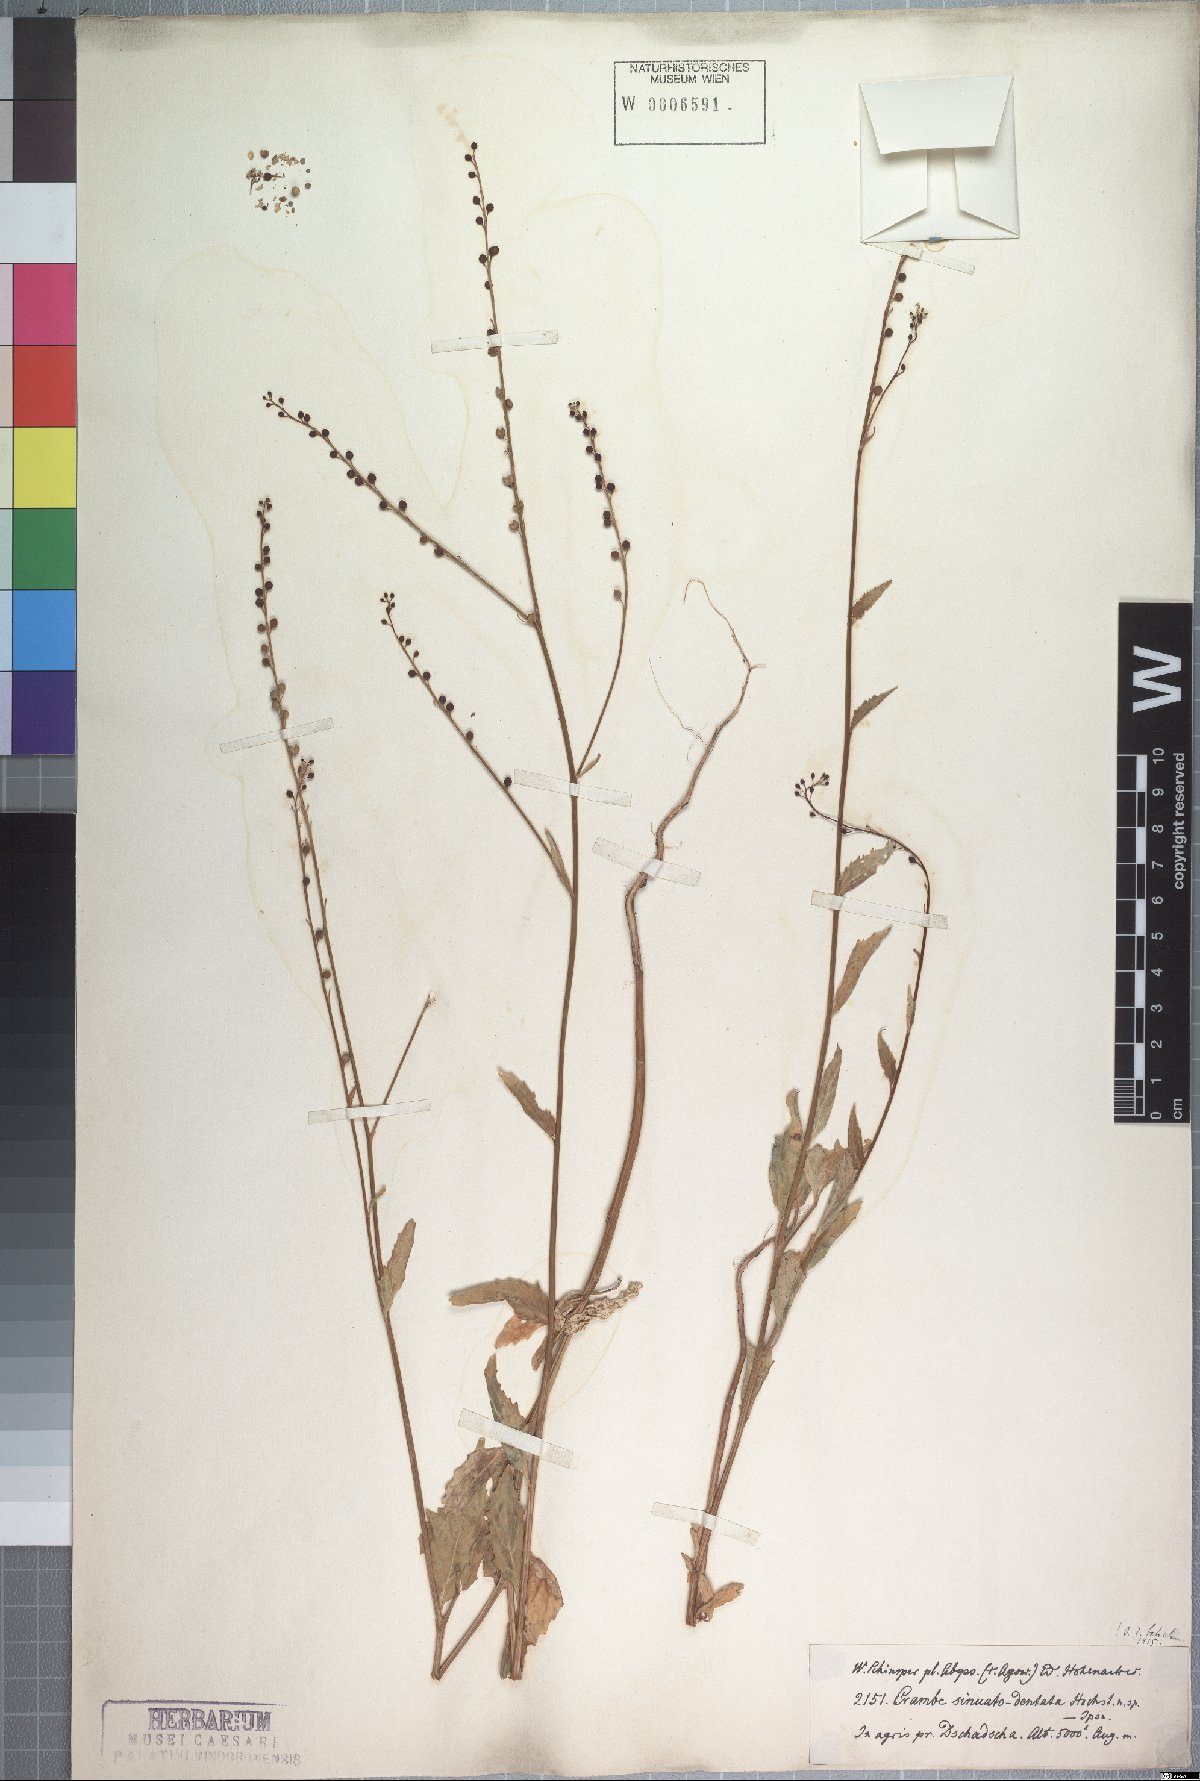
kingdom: Plantae
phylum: Tracheophyta
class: Magnoliopsida
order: Brassicales
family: Brassicaceae
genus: Crambe
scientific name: Crambe sinuato-dentata
